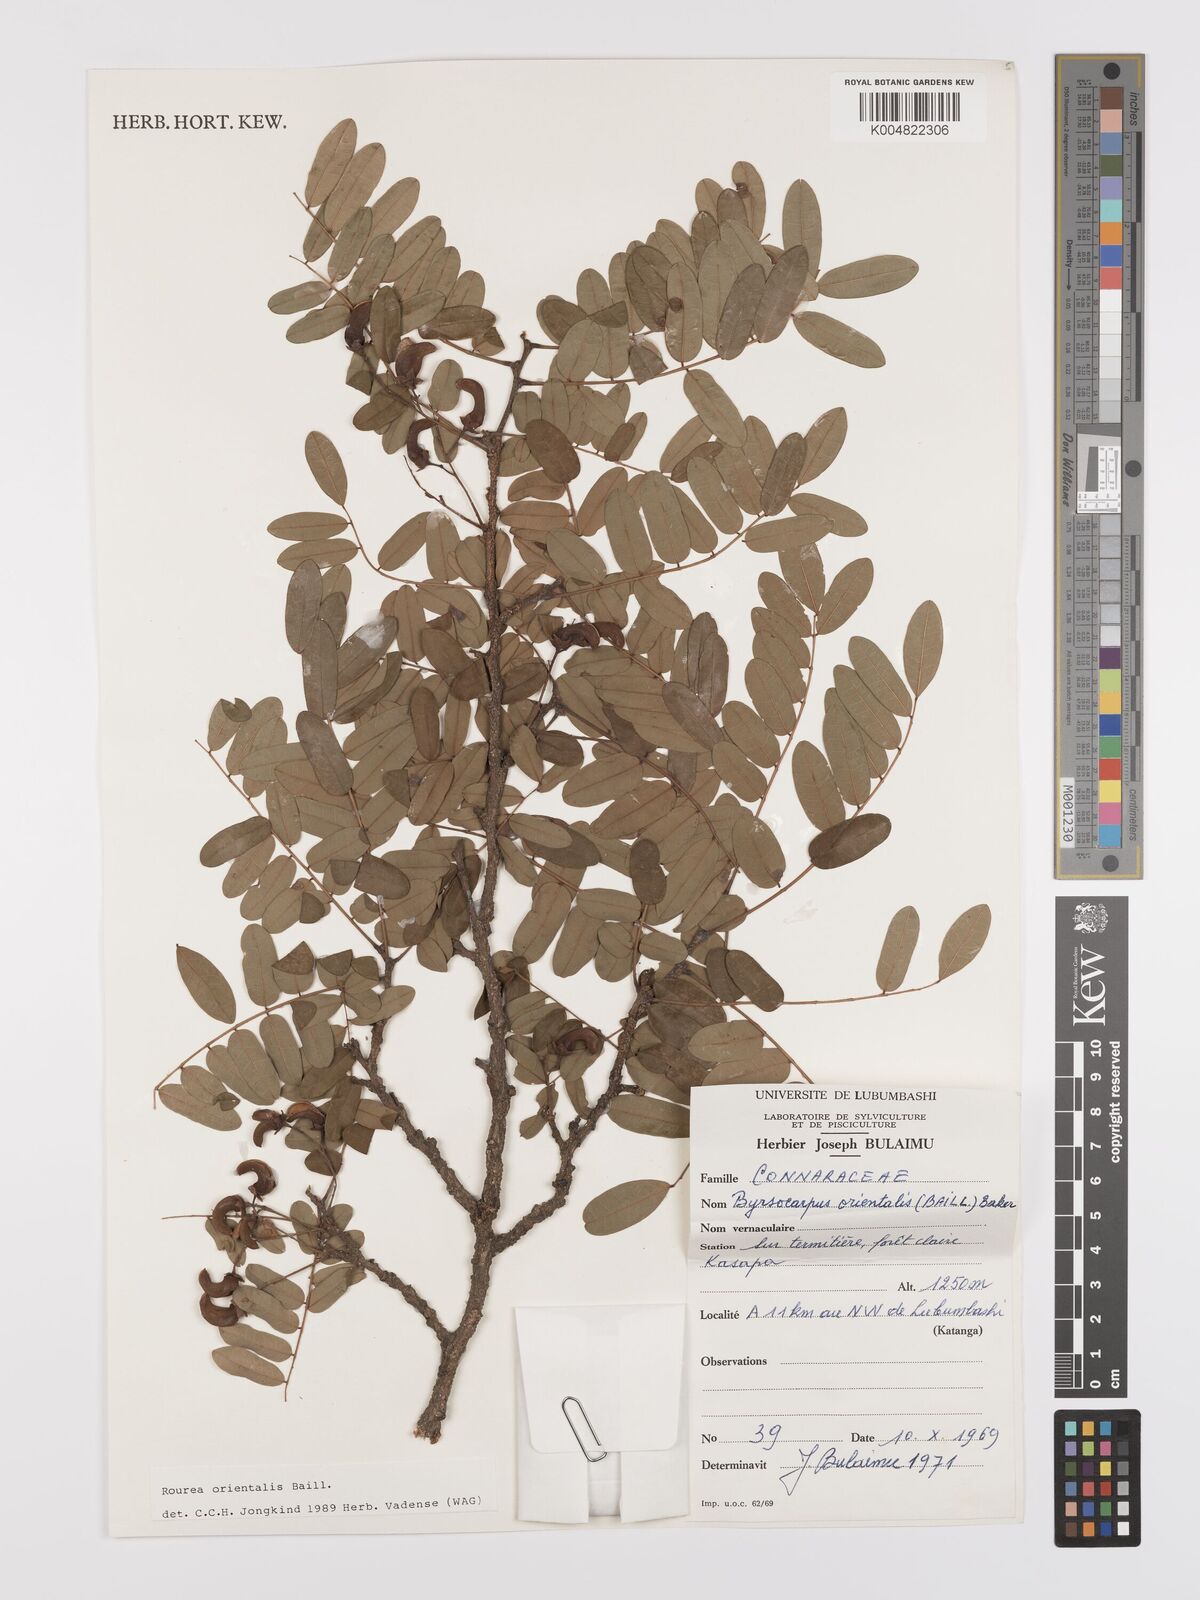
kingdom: Plantae
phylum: Tracheophyta
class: Magnoliopsida
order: Oxalidales
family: Connaraceae
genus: Rourea
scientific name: Rourea orientalis
